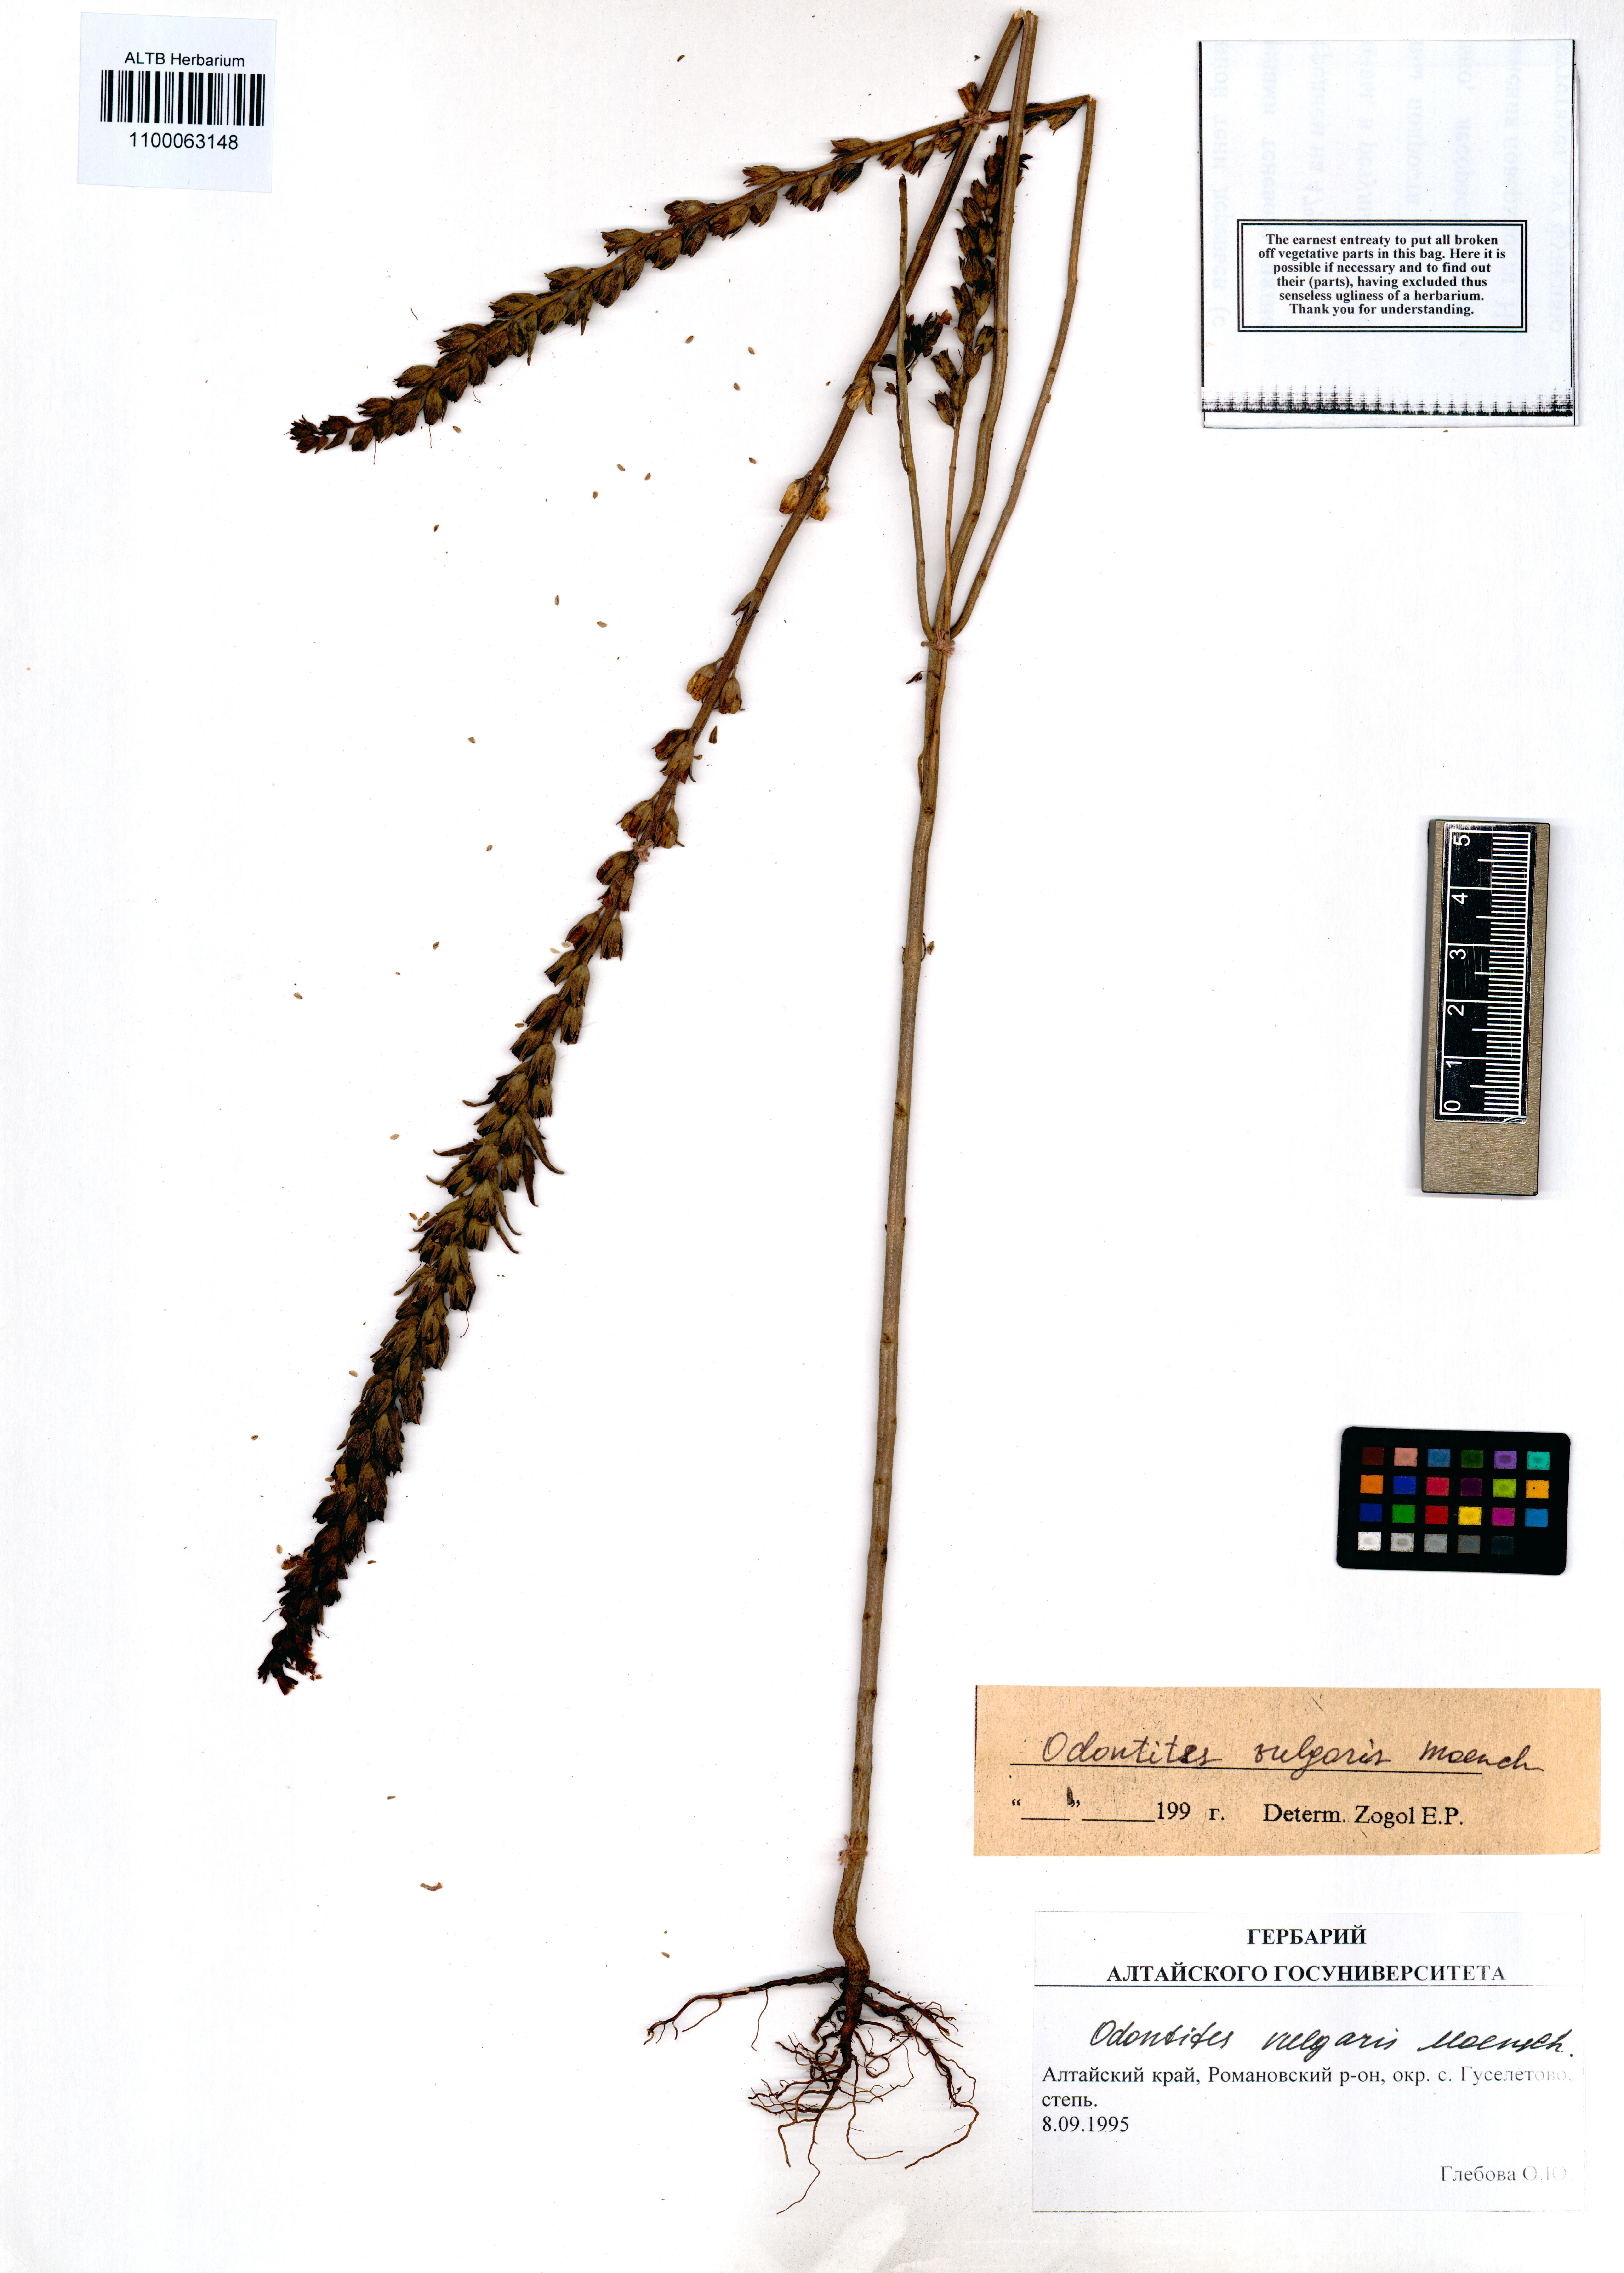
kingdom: Plantae
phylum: Tracheophyta
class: Magnoliopsida
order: Lamiales
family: Orobanchaceae
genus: Odontites
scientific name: Odontites vulgaris
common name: Broomrape
